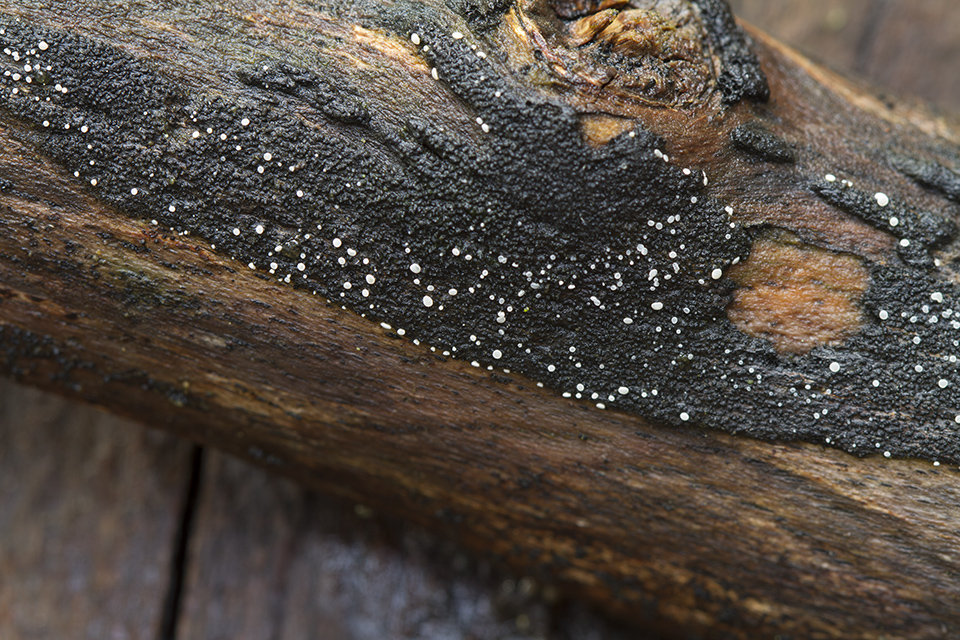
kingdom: Fungi
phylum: Ascomycota
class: Leotiomycetes
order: Helotiales
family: Hyaloscyphaceae
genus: Polydesmia
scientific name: Polydesmia pruinosa
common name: dunskive
